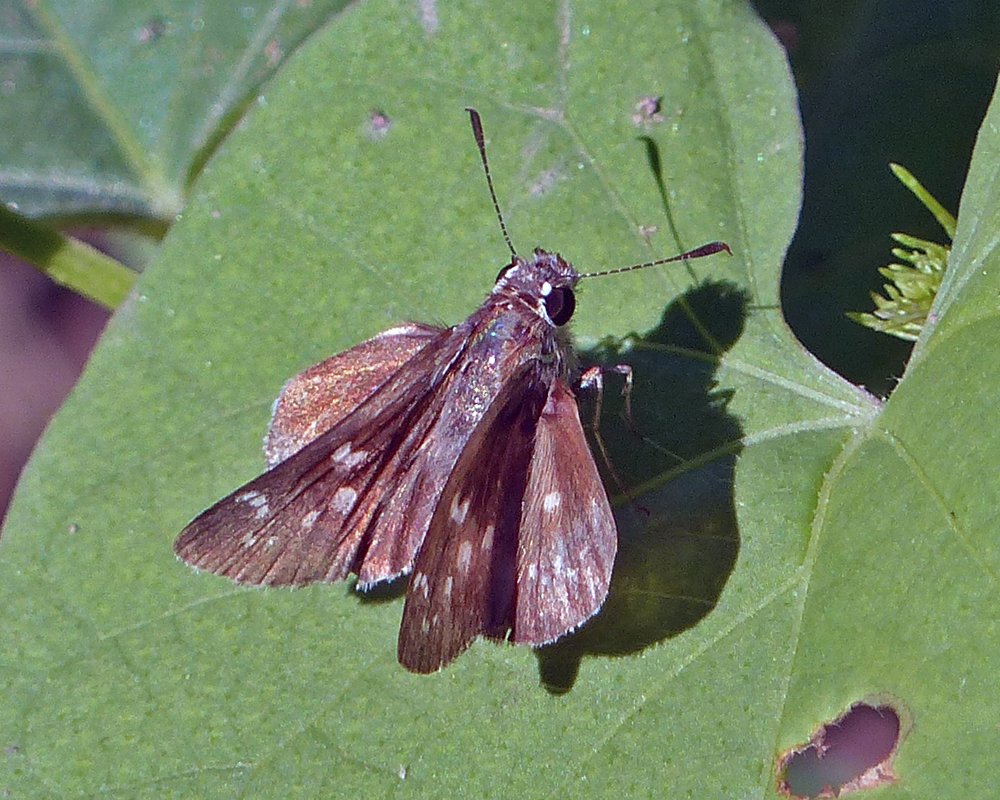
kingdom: Animalia
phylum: Arthropoda
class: Insecta
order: Lepidoptera
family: Hesperiidae
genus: Mastor
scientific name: Mastor tolteca
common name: Toltec Roadside-Skipper
